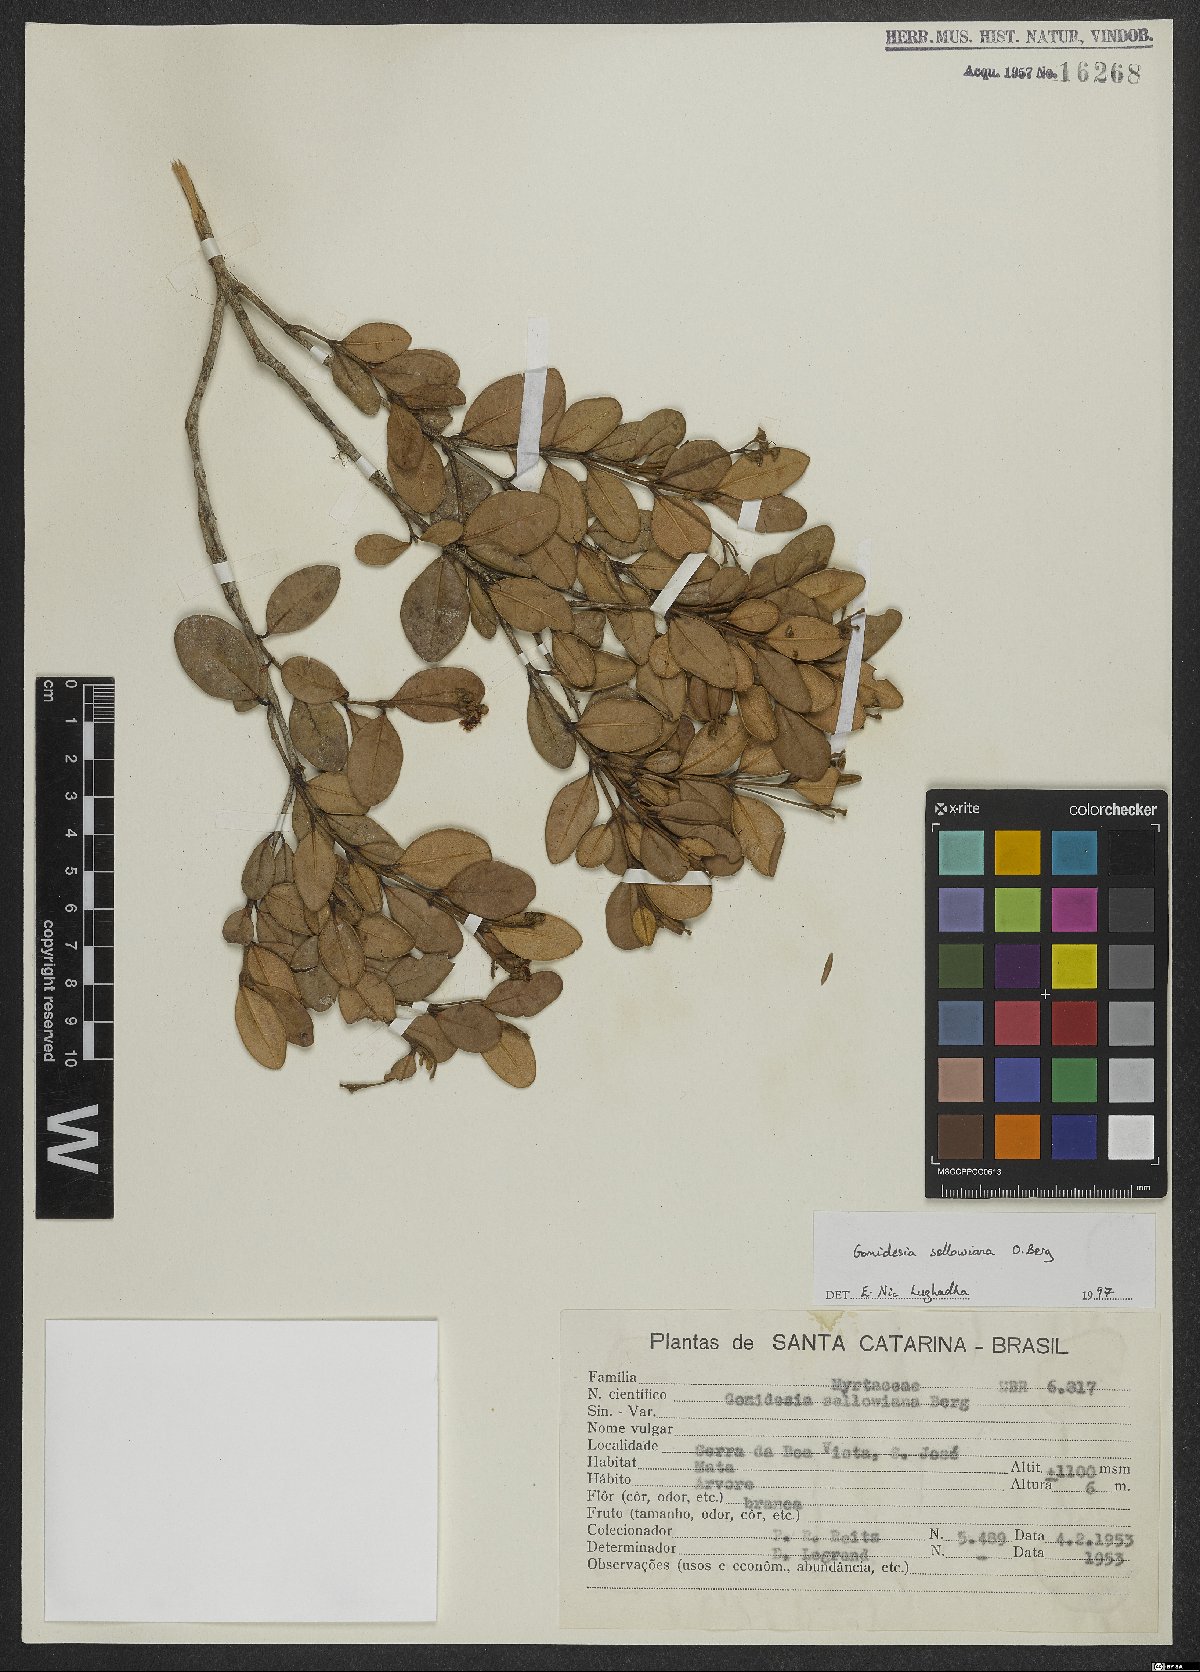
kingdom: Plantae
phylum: Tracheophyta
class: Magnoliopsida
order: Myrtales
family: Myrtaceae
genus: Myrcia
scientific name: Myrcia hartwegiana
